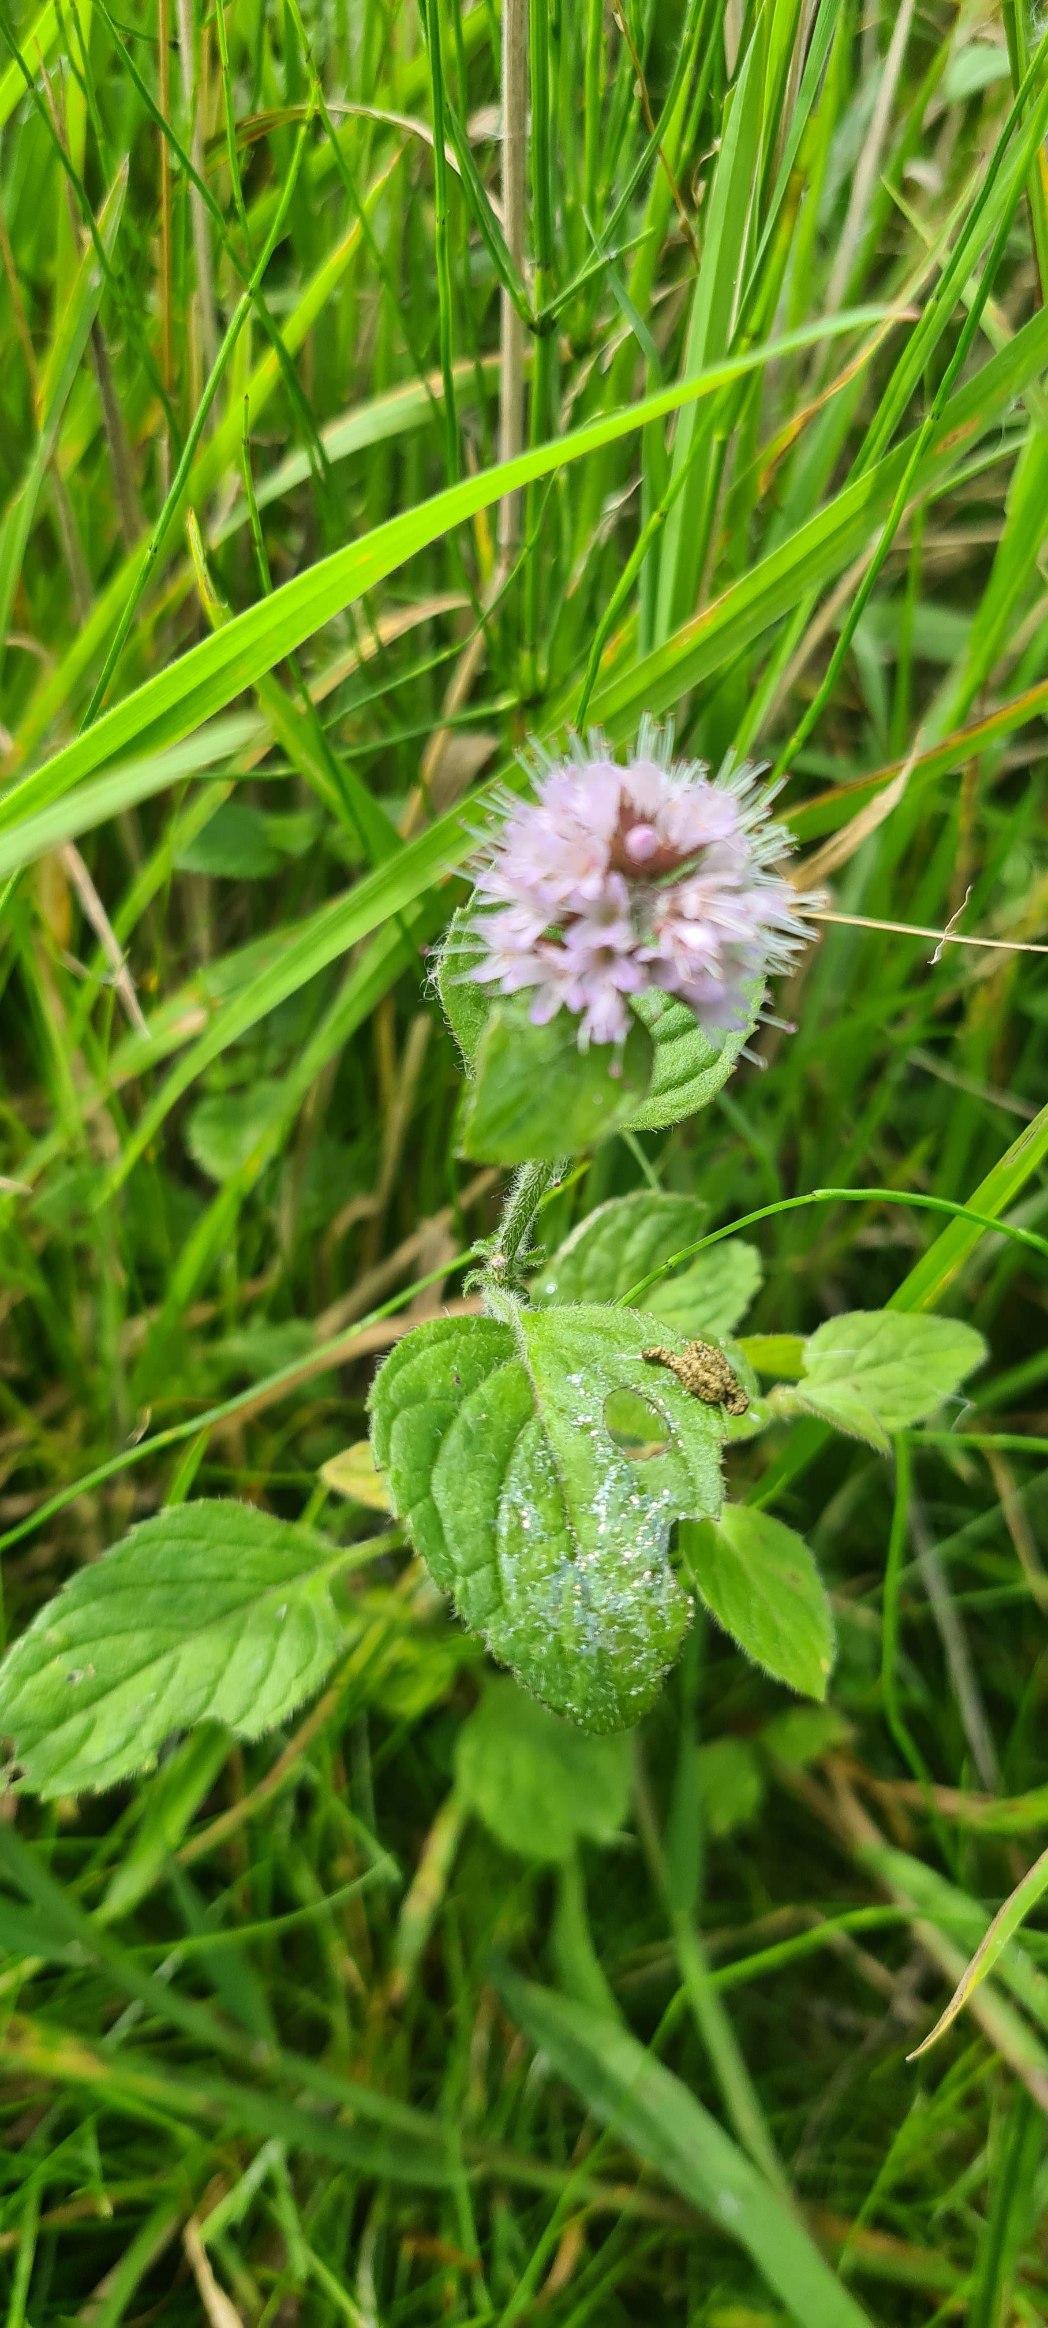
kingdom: Plantae
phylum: Tracheophyta
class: Magnoliopsida
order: Lamiales
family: Lamiaceae
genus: Mentha
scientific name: Mentha aquatica
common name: Vand-mynte
